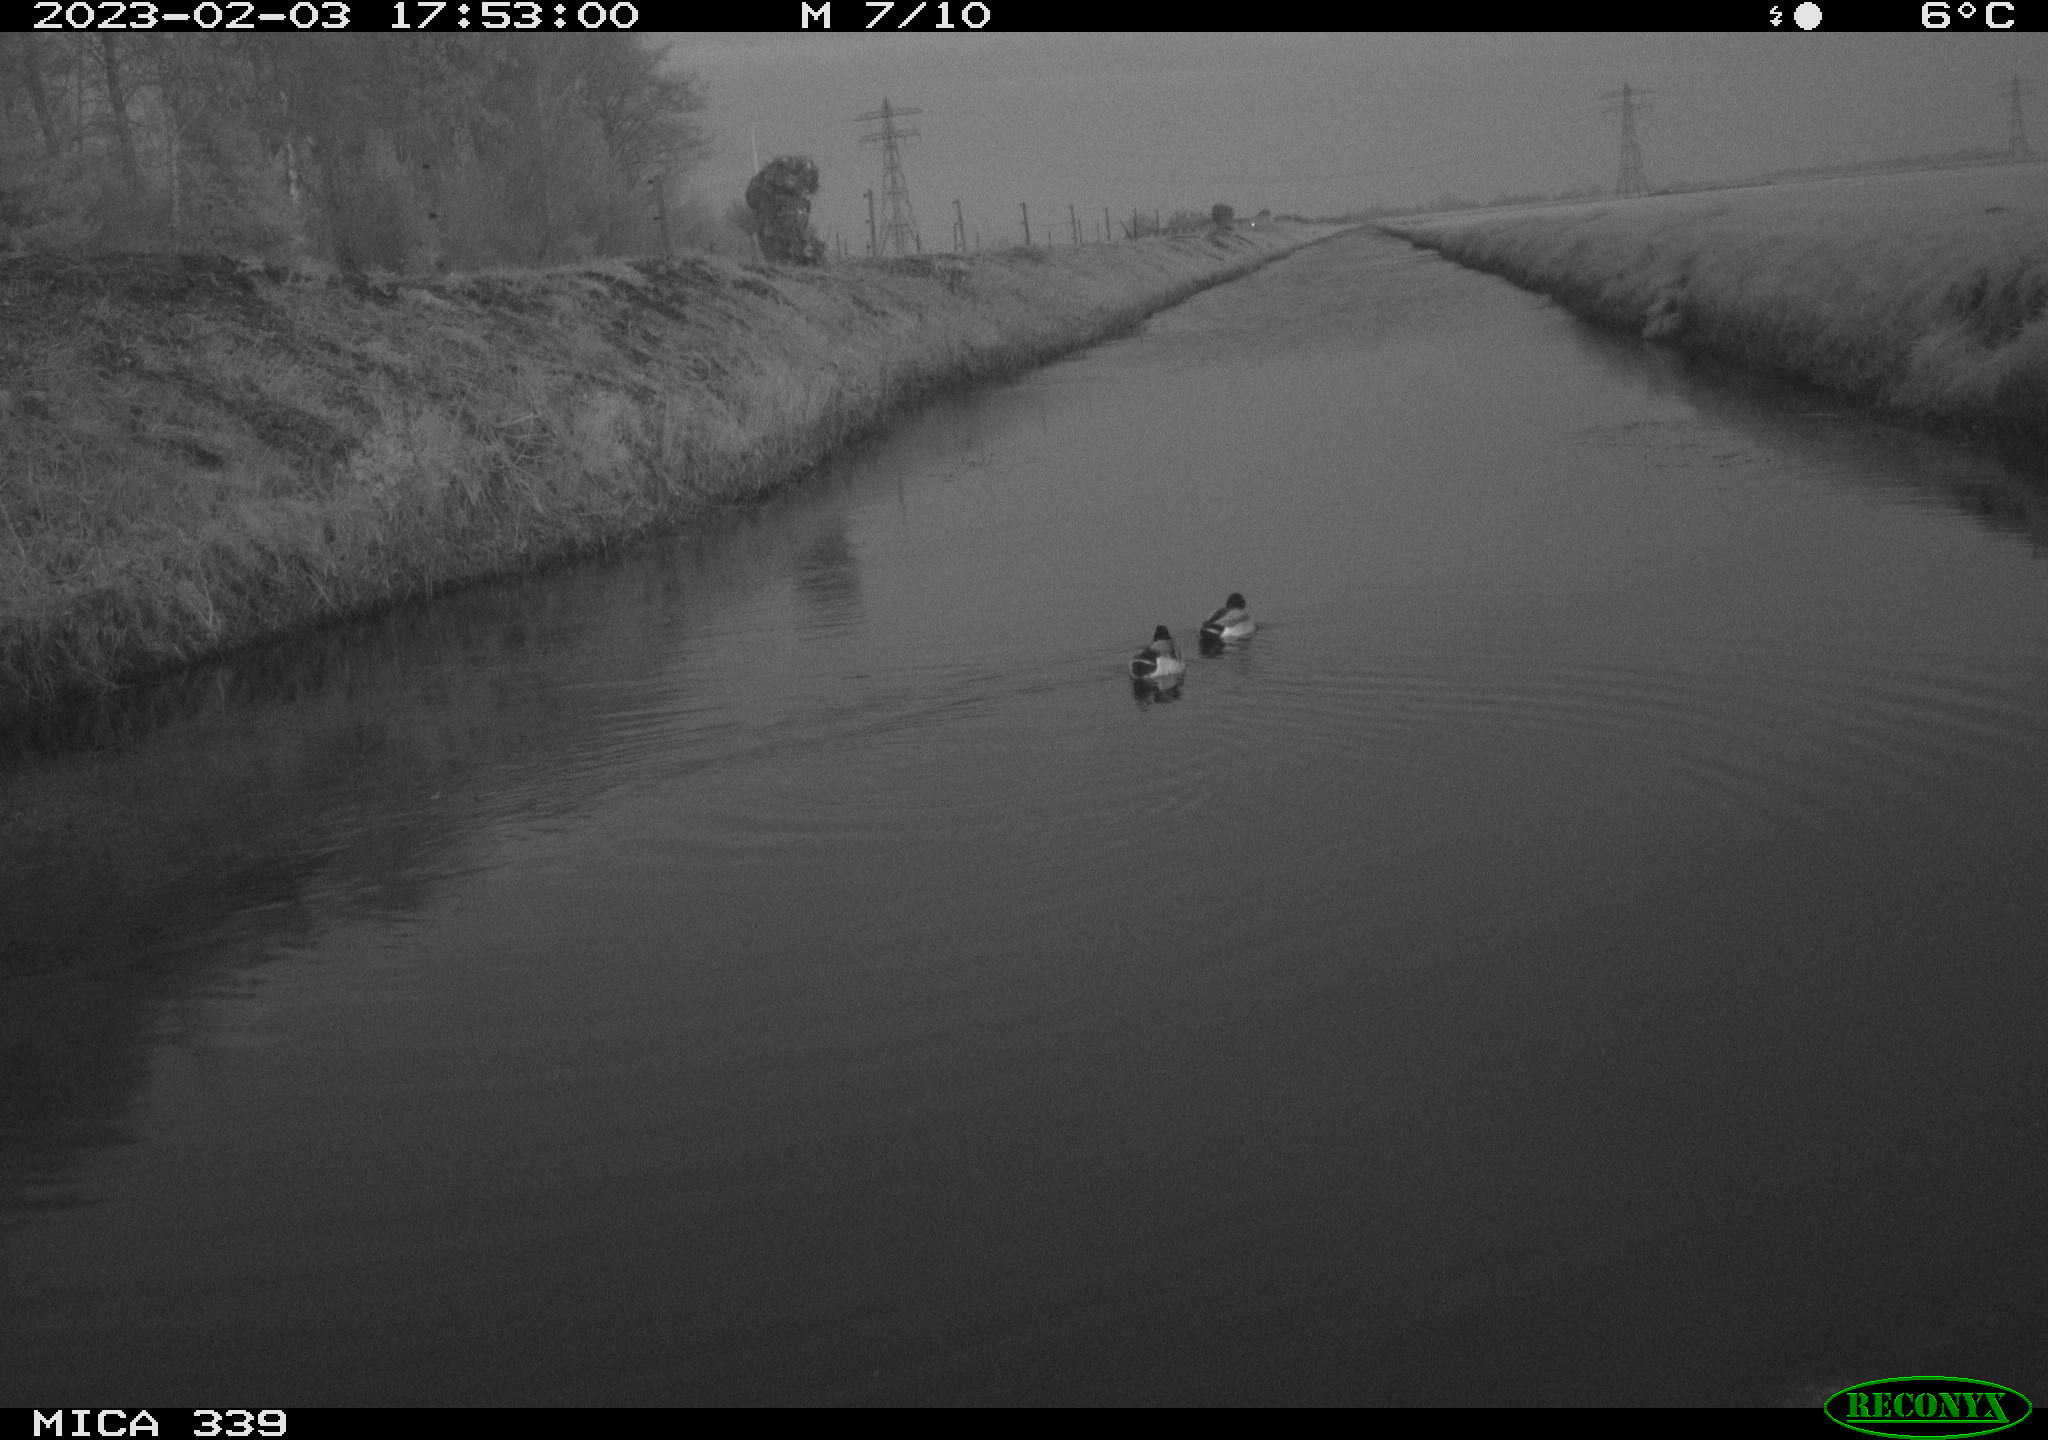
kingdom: Animalia
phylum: Chordata
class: Aves
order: Anseriformes
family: Anatidae
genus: Anas
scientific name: Anas
